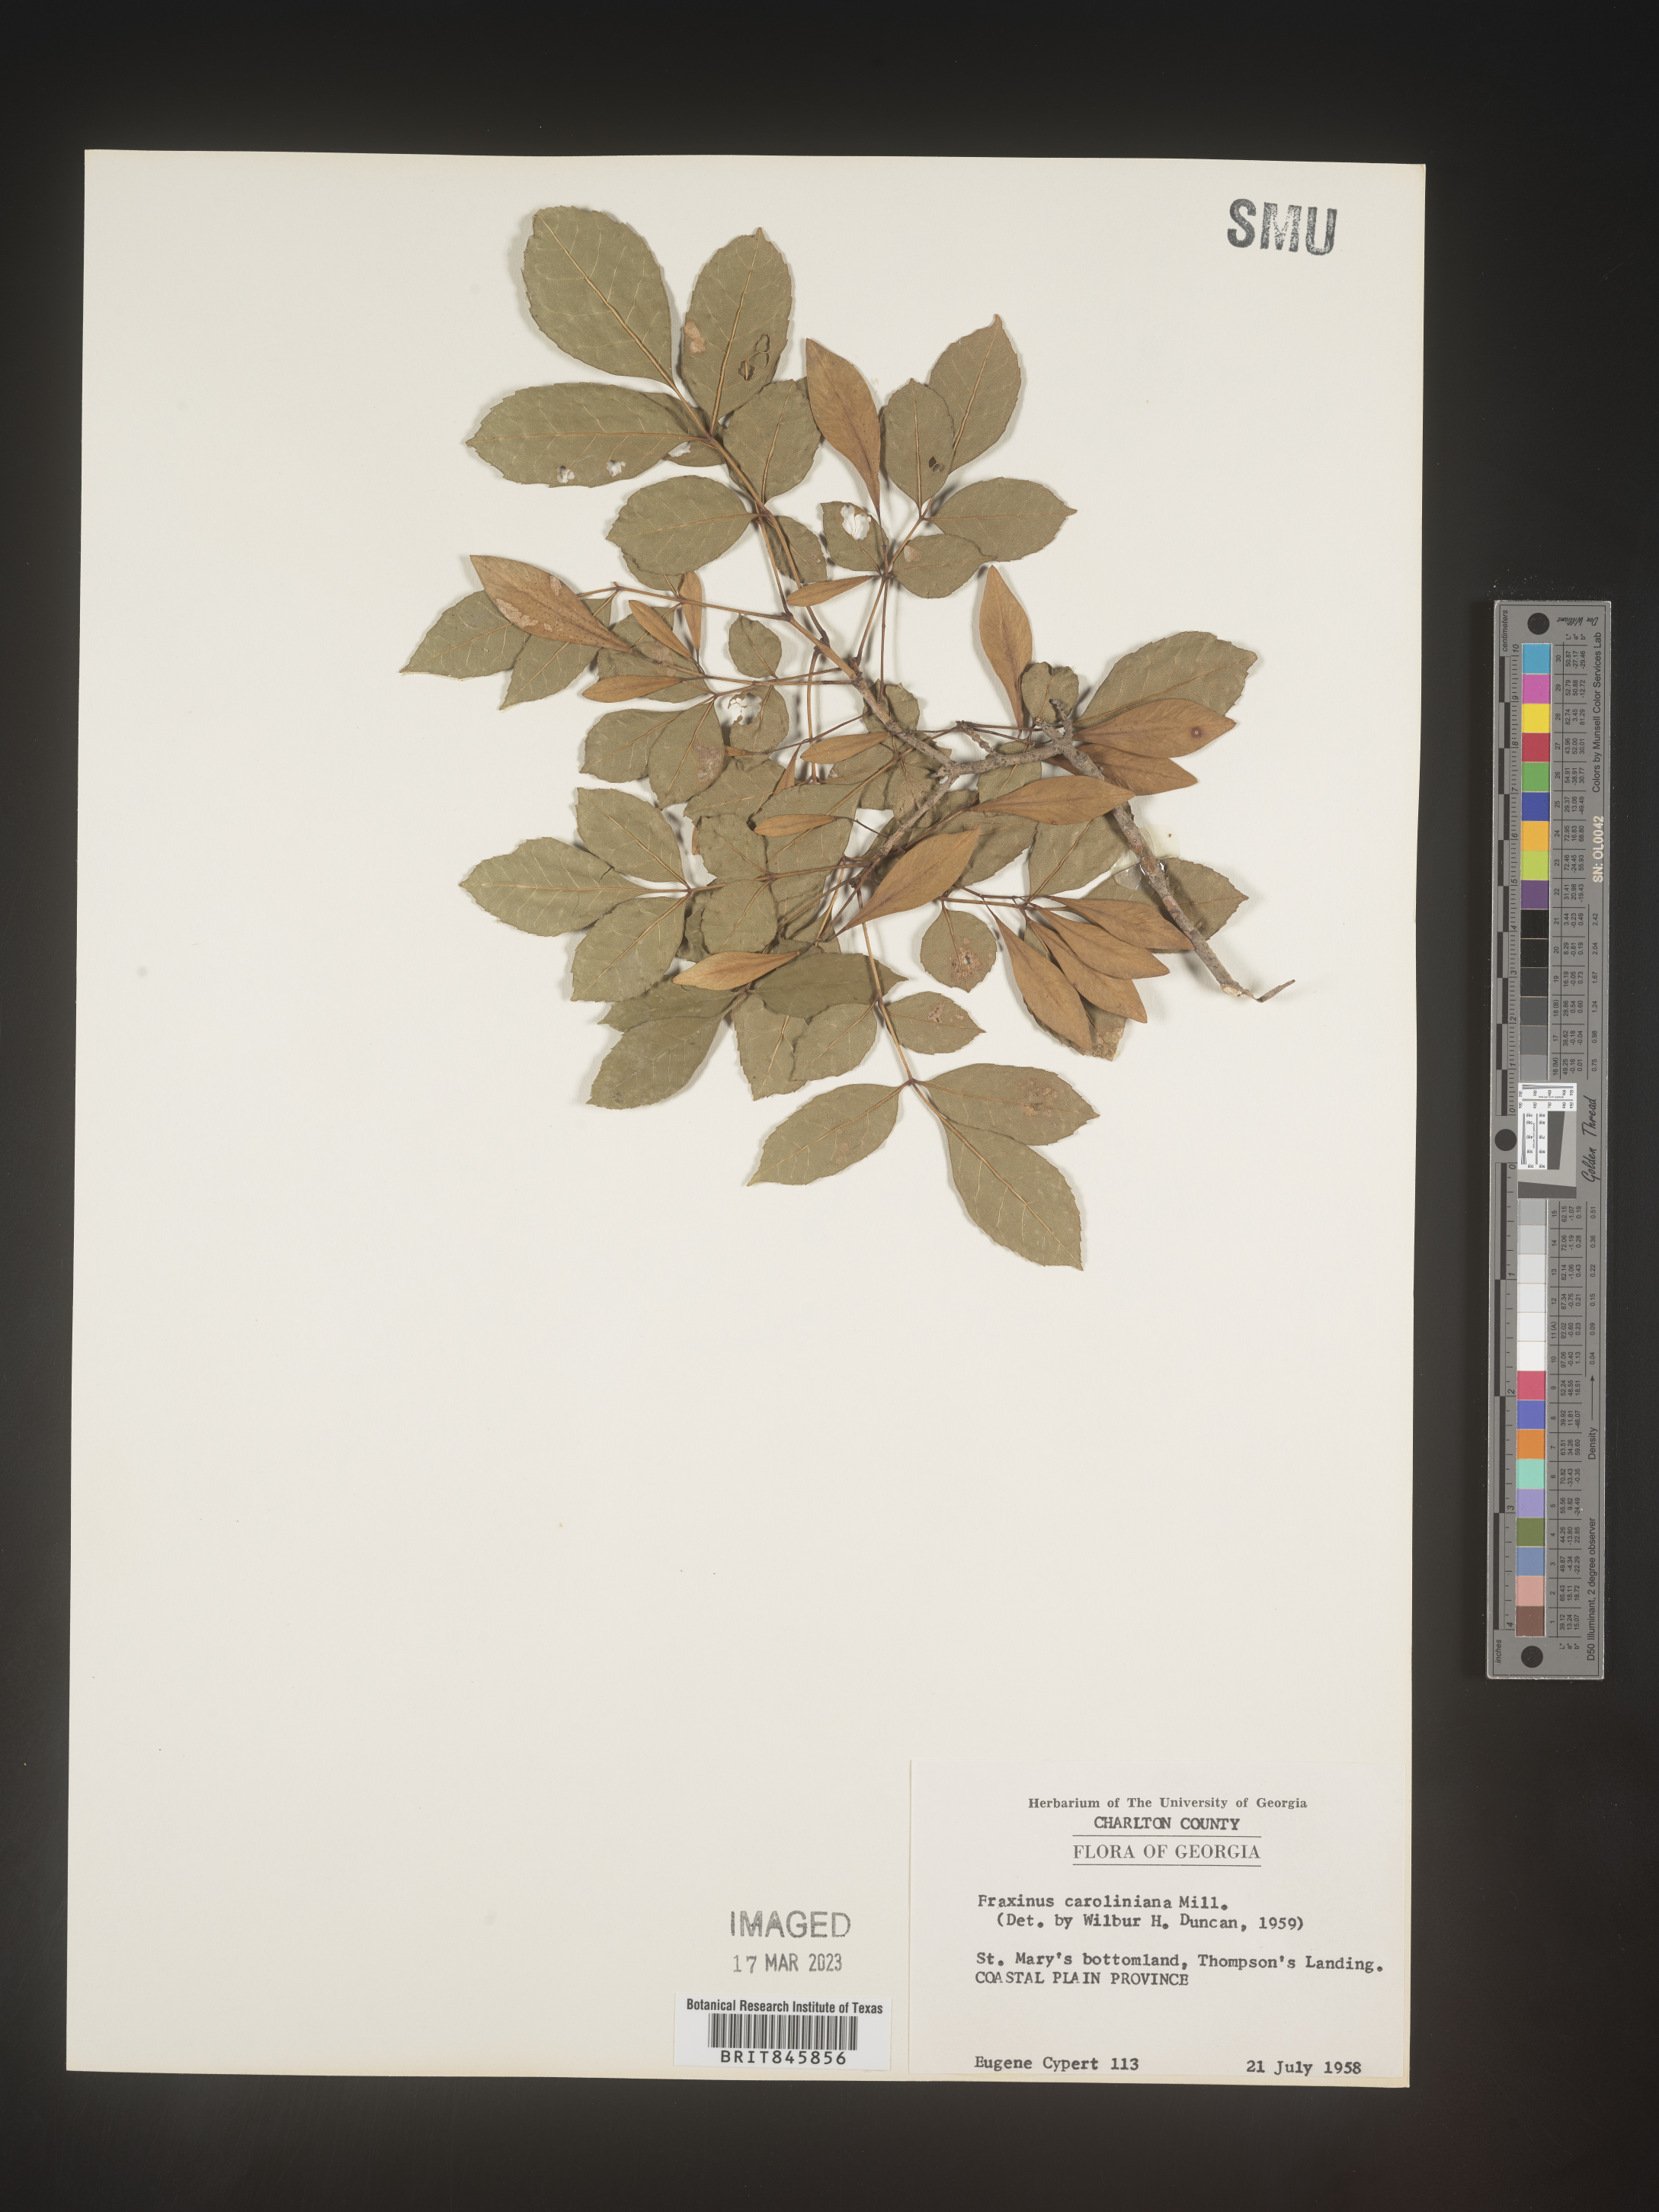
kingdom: Plantae
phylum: Tracheophyta
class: Magnoliopsida
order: Lamiales
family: Oleaceae
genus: Fraxinus
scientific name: Fraxinus caroliniana
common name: Carolina ash
